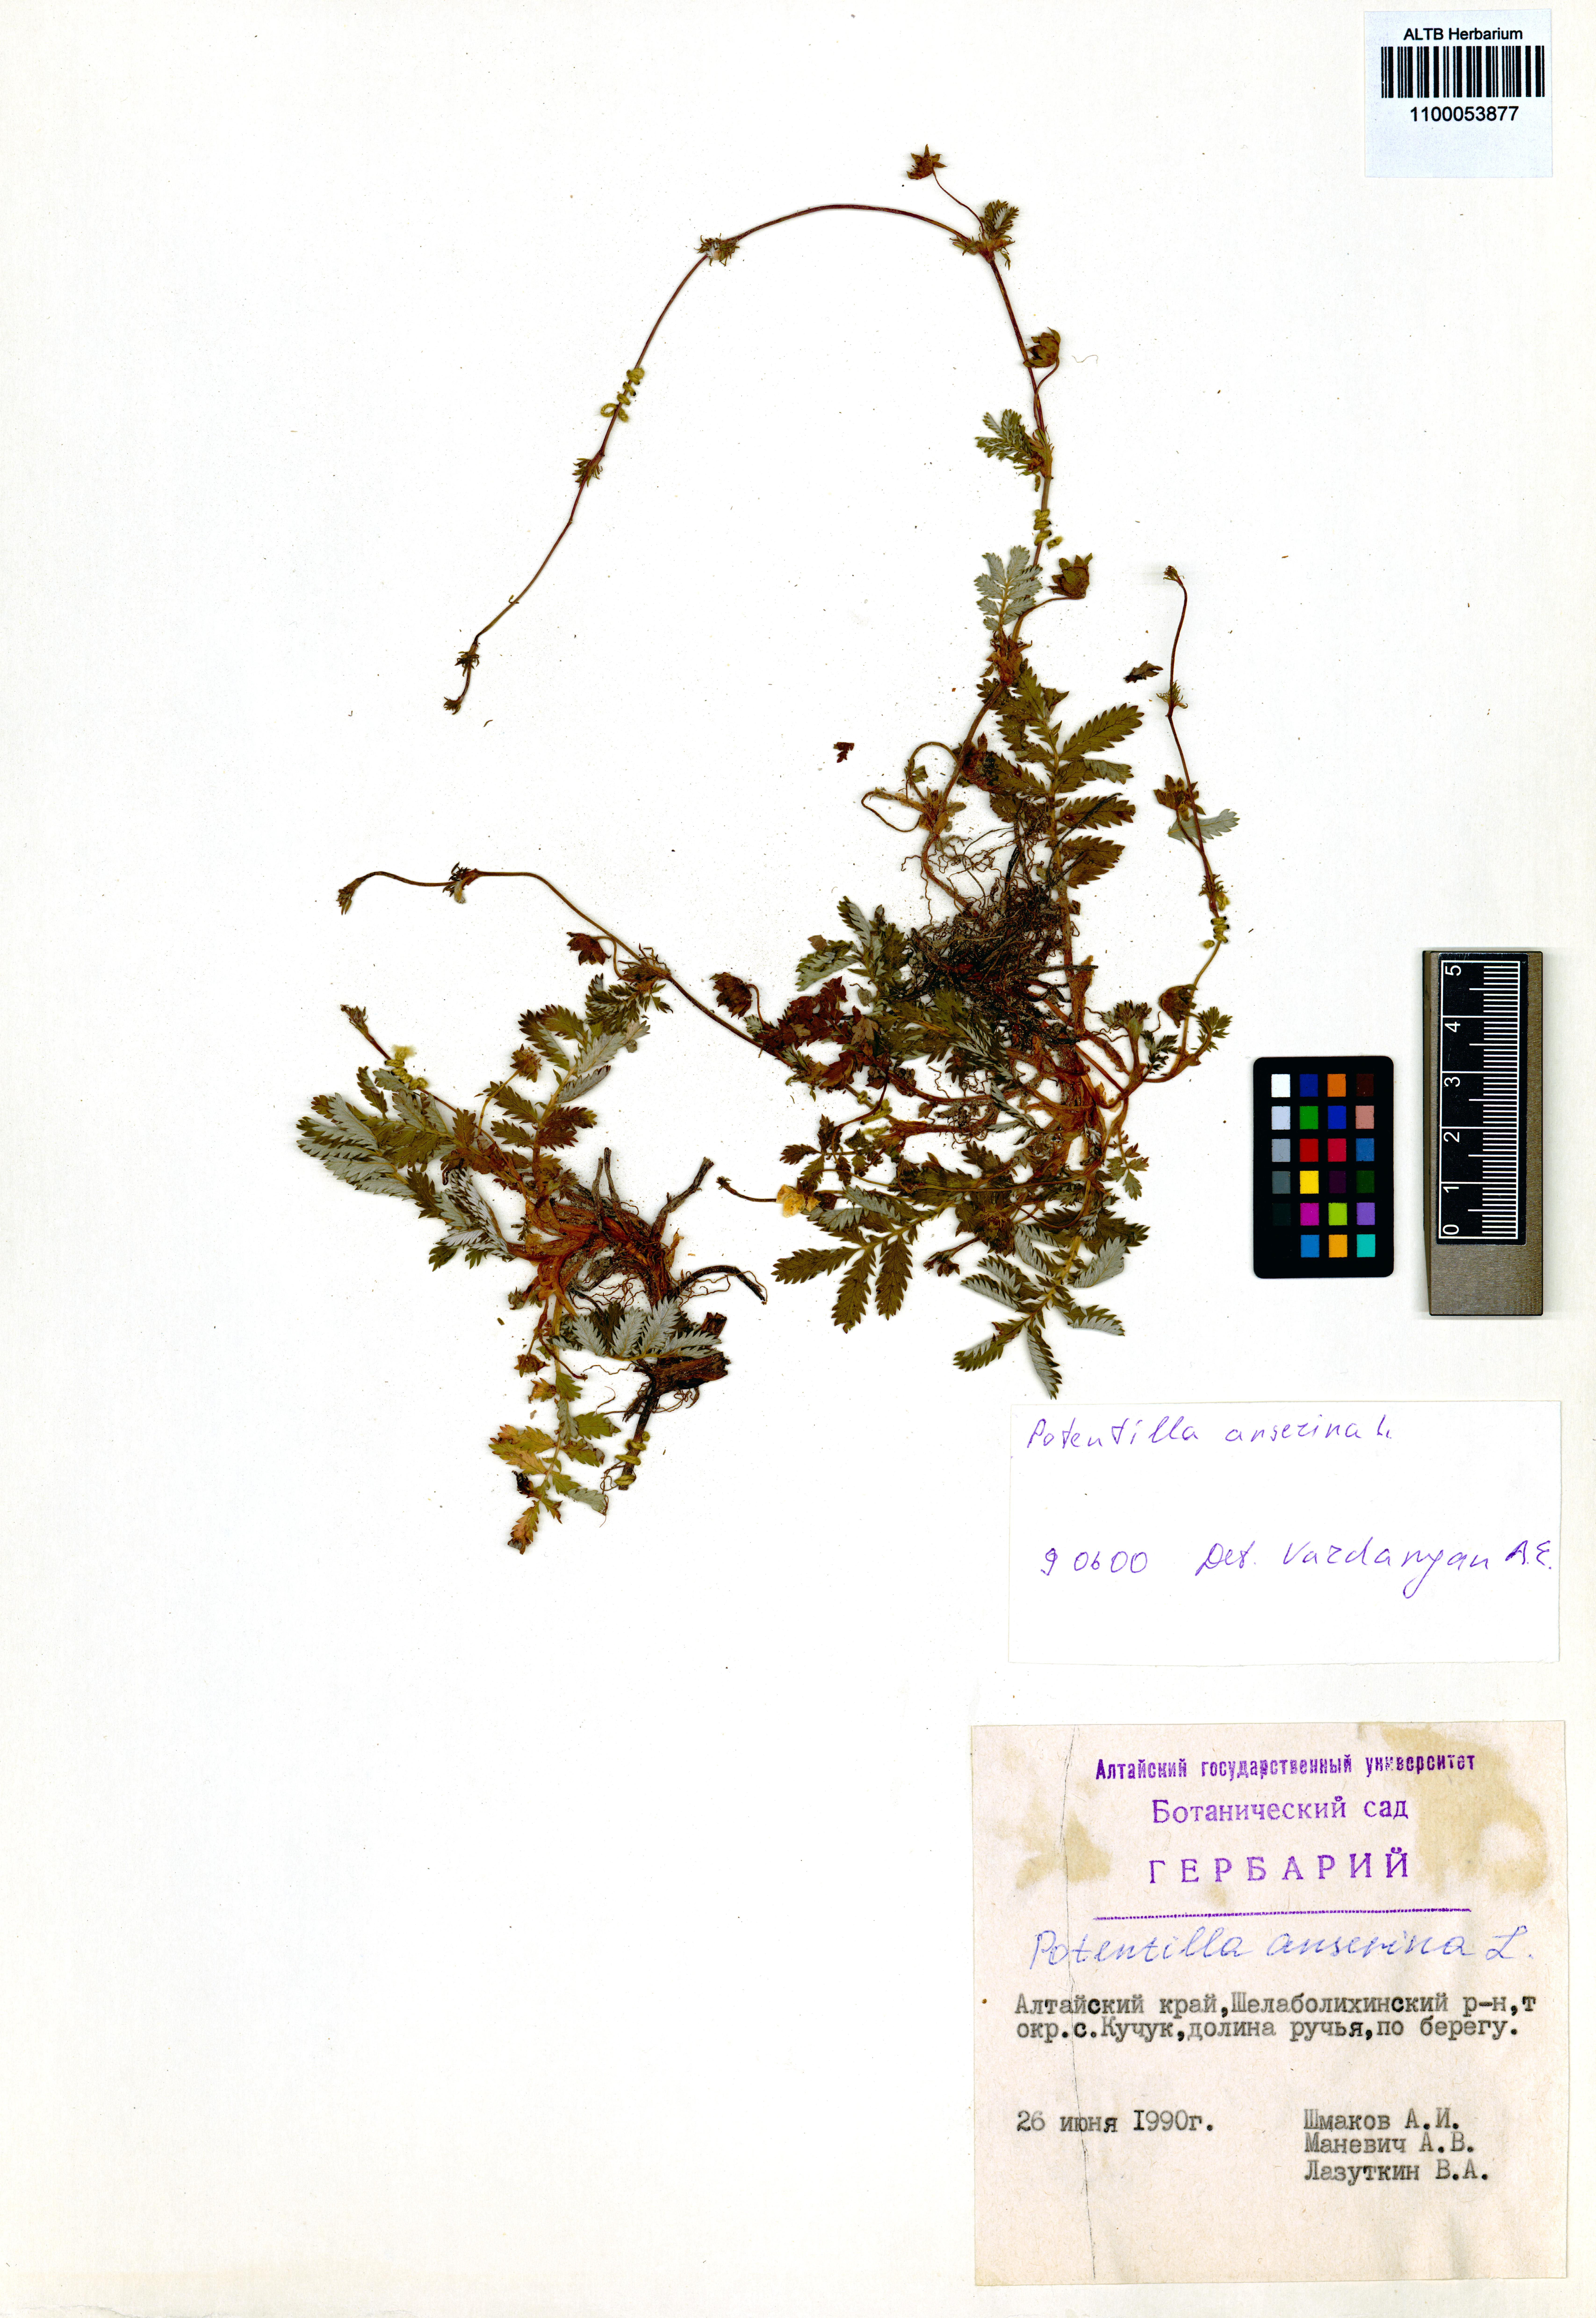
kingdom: Plantae
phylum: Tracheophyta
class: Magnoliopsida
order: Rosales
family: Rosaceae
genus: Argentina
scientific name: Argentina anserina
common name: Common silverweed
